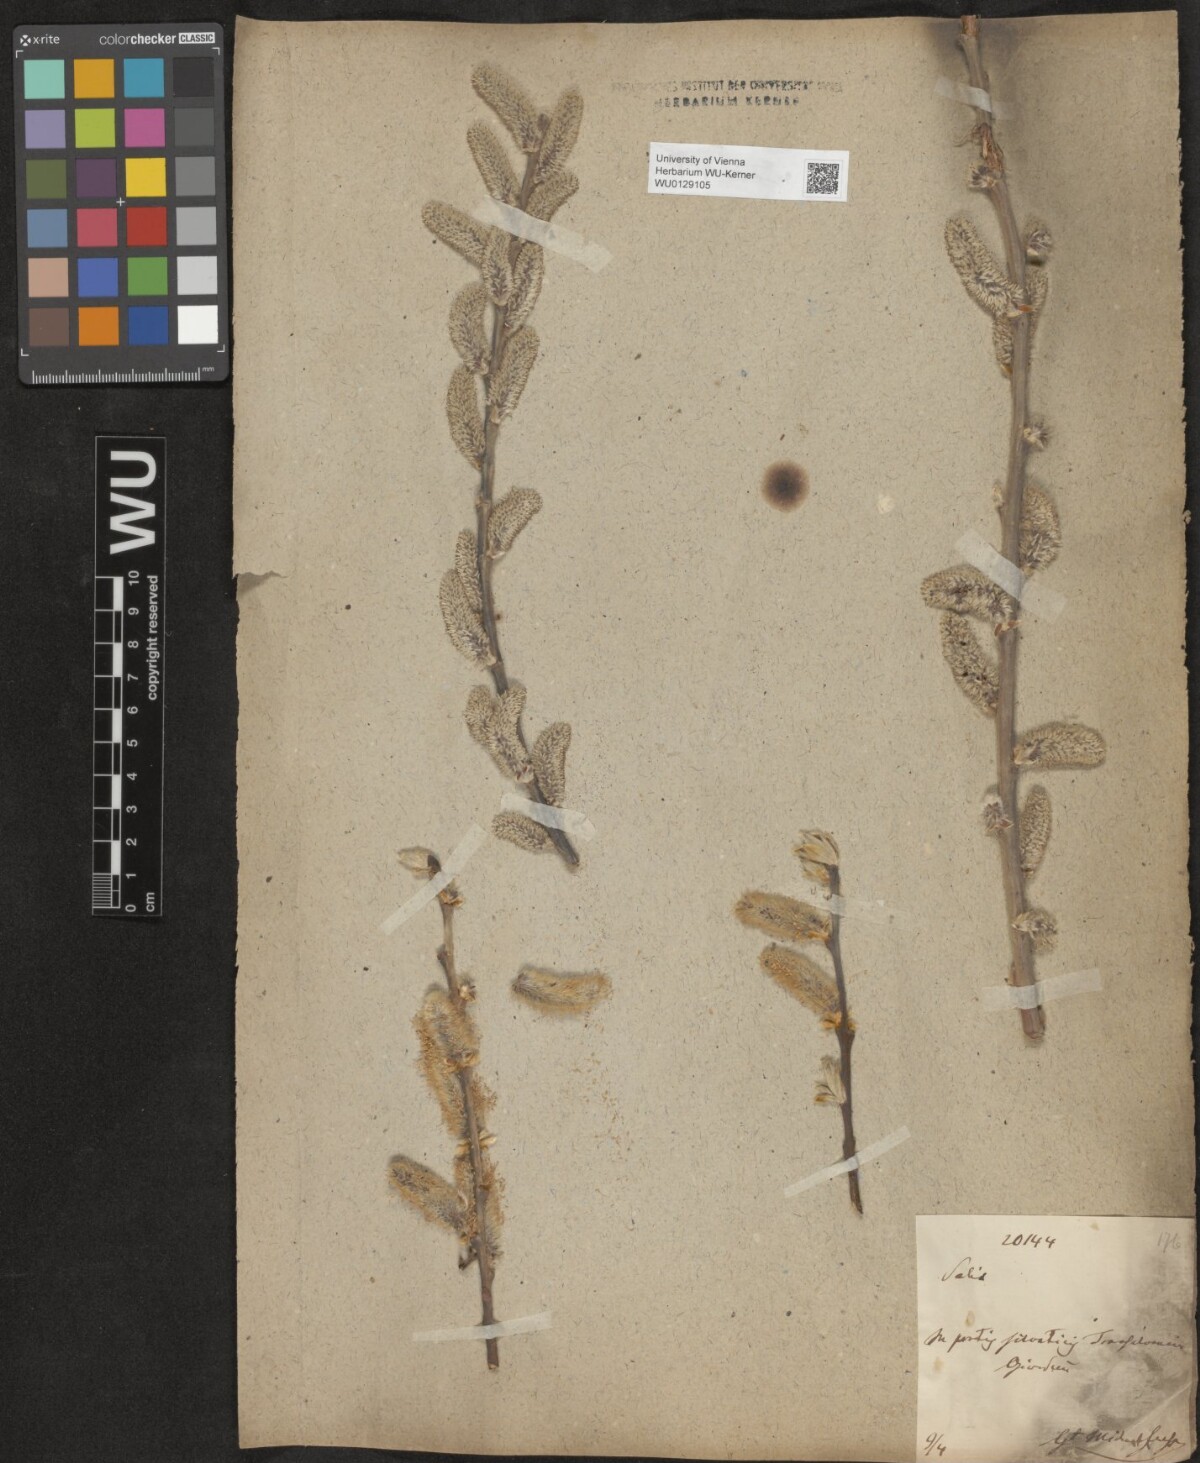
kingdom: Plantae
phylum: Tracheophyta
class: Magnoliopsida
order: Malpighiales
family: Salicaceae
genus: Salix
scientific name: Salix cinerea
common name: Common sallow
